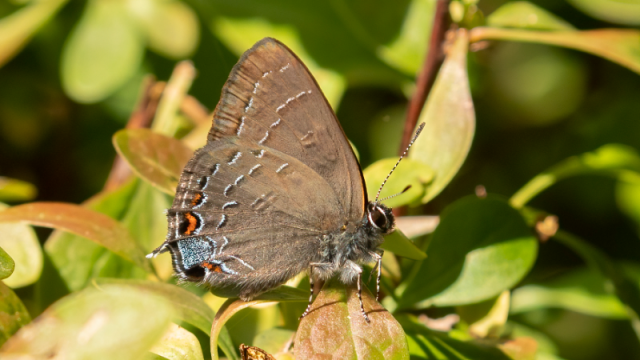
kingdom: Animalia
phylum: Arthropoda
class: Insecta
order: Lepidoptera
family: Lycaenidae
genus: Satyrium
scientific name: Satyrium calanus
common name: Banded Hairstreak
